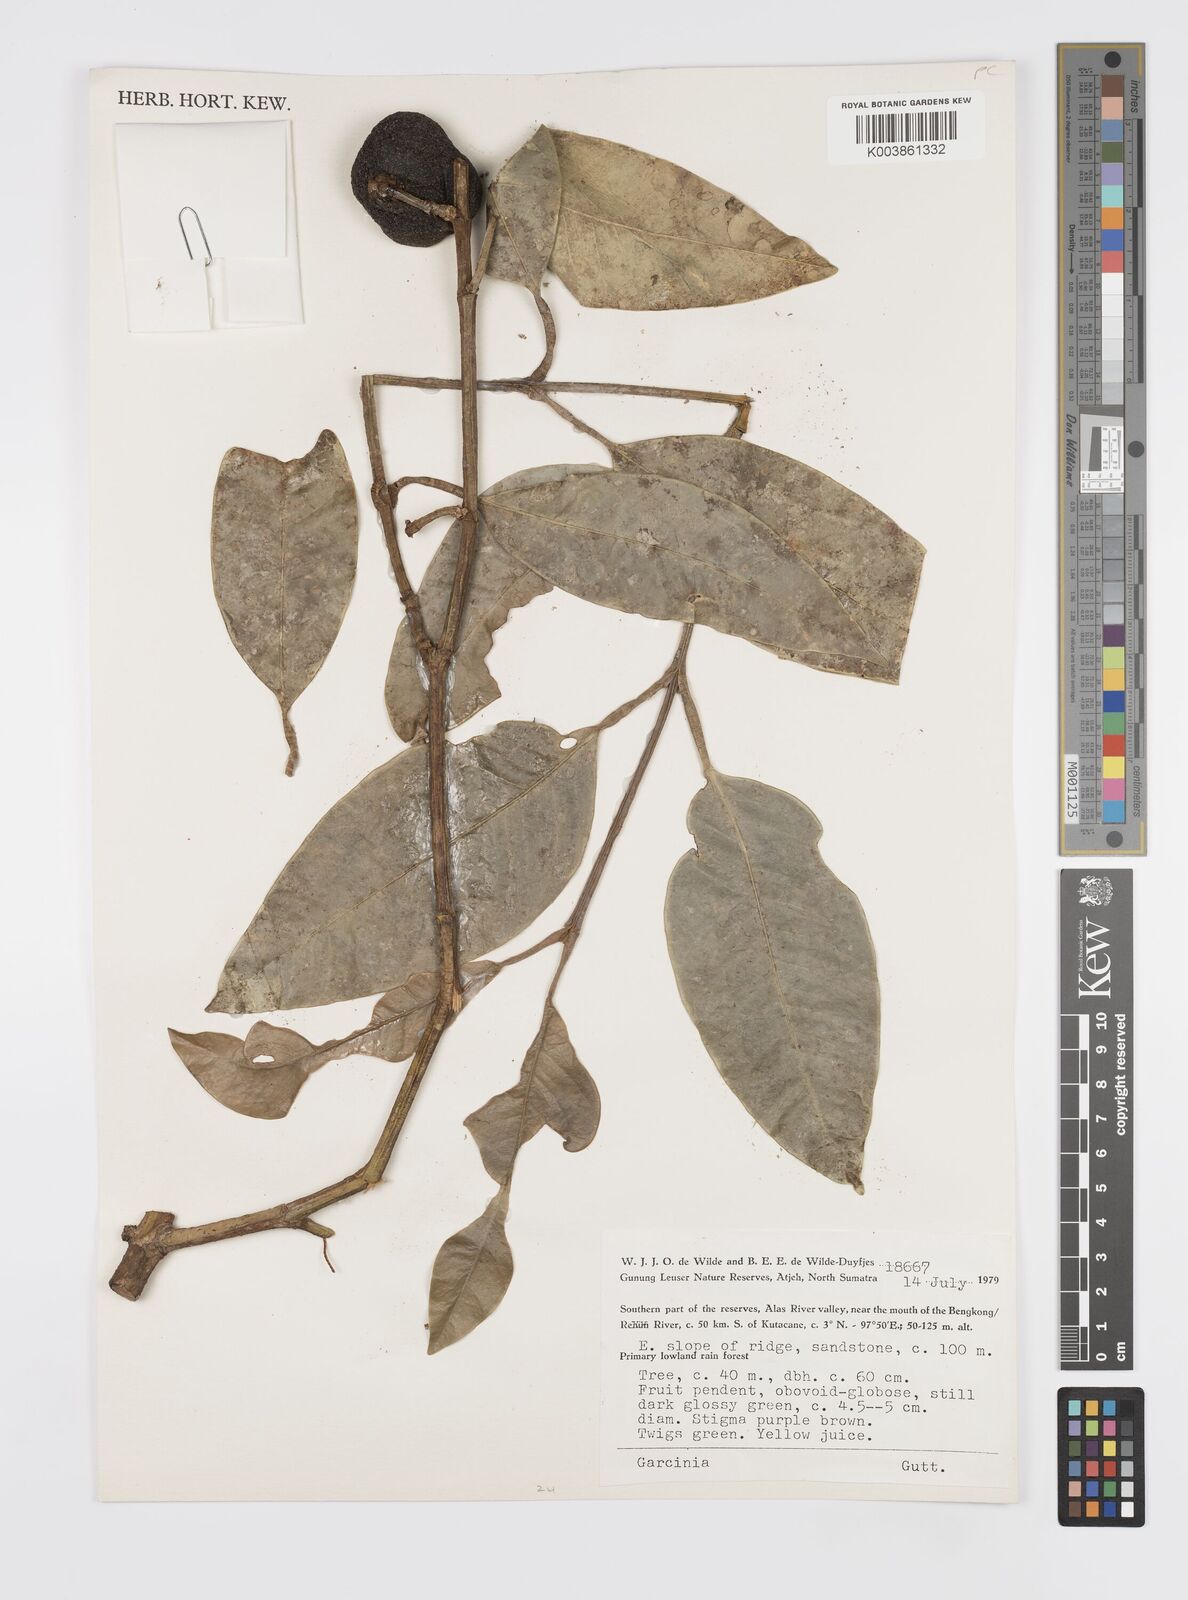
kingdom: Plantae
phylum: Tracheophyta
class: Magnoliopsida
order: Malpighiales
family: Clusiaceae
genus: Garcinia
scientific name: Garcinia
